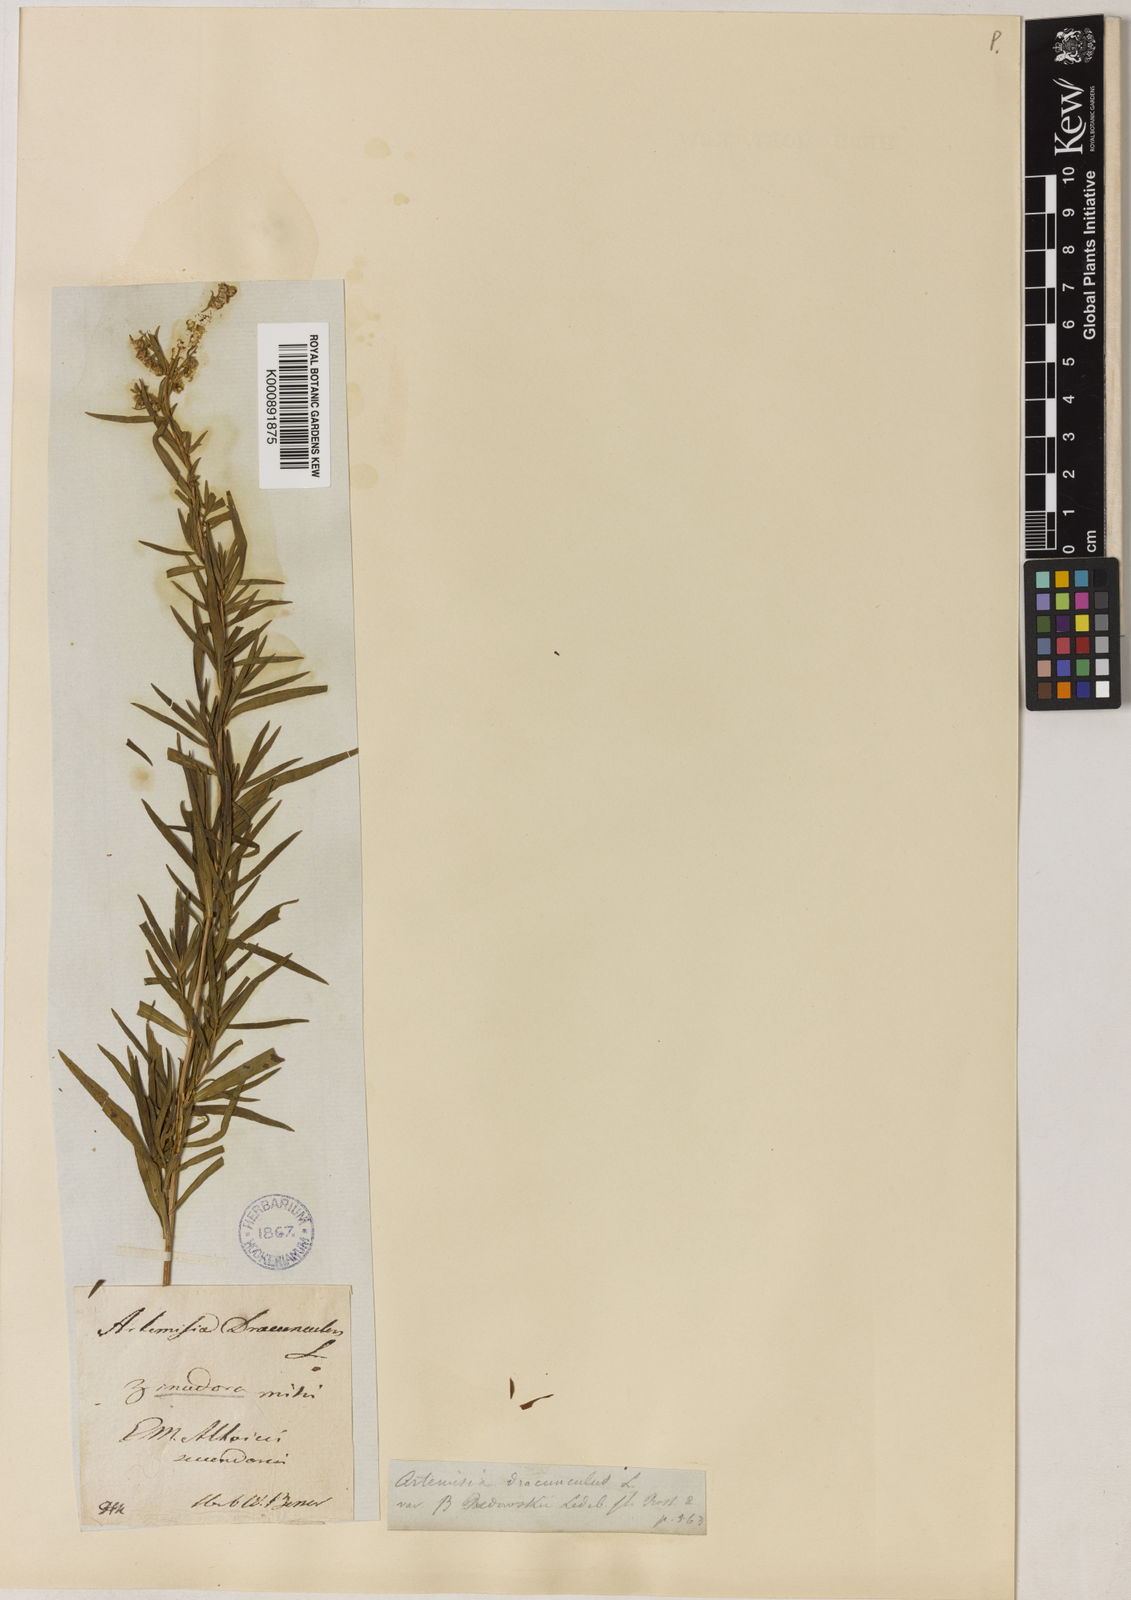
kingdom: Plantae
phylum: Tracheophyta
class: Magnoliopsida
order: Asterales
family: Asteraceae
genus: Artemisia
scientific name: Artemisia dracunculus
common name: Tarragon
